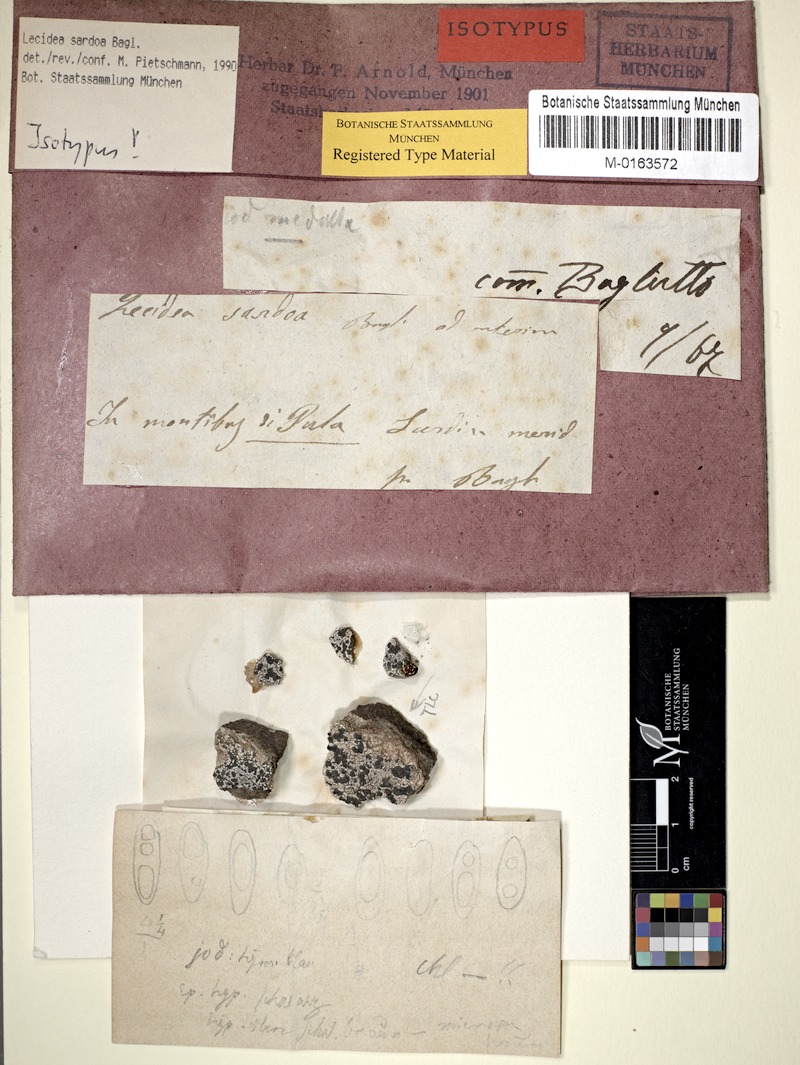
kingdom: Fungi
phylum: Ascomycota
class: Lecanoromycetes
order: Lecanorales
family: Lecanoraceae
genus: Lecanora
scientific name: Lecanora sardoa
